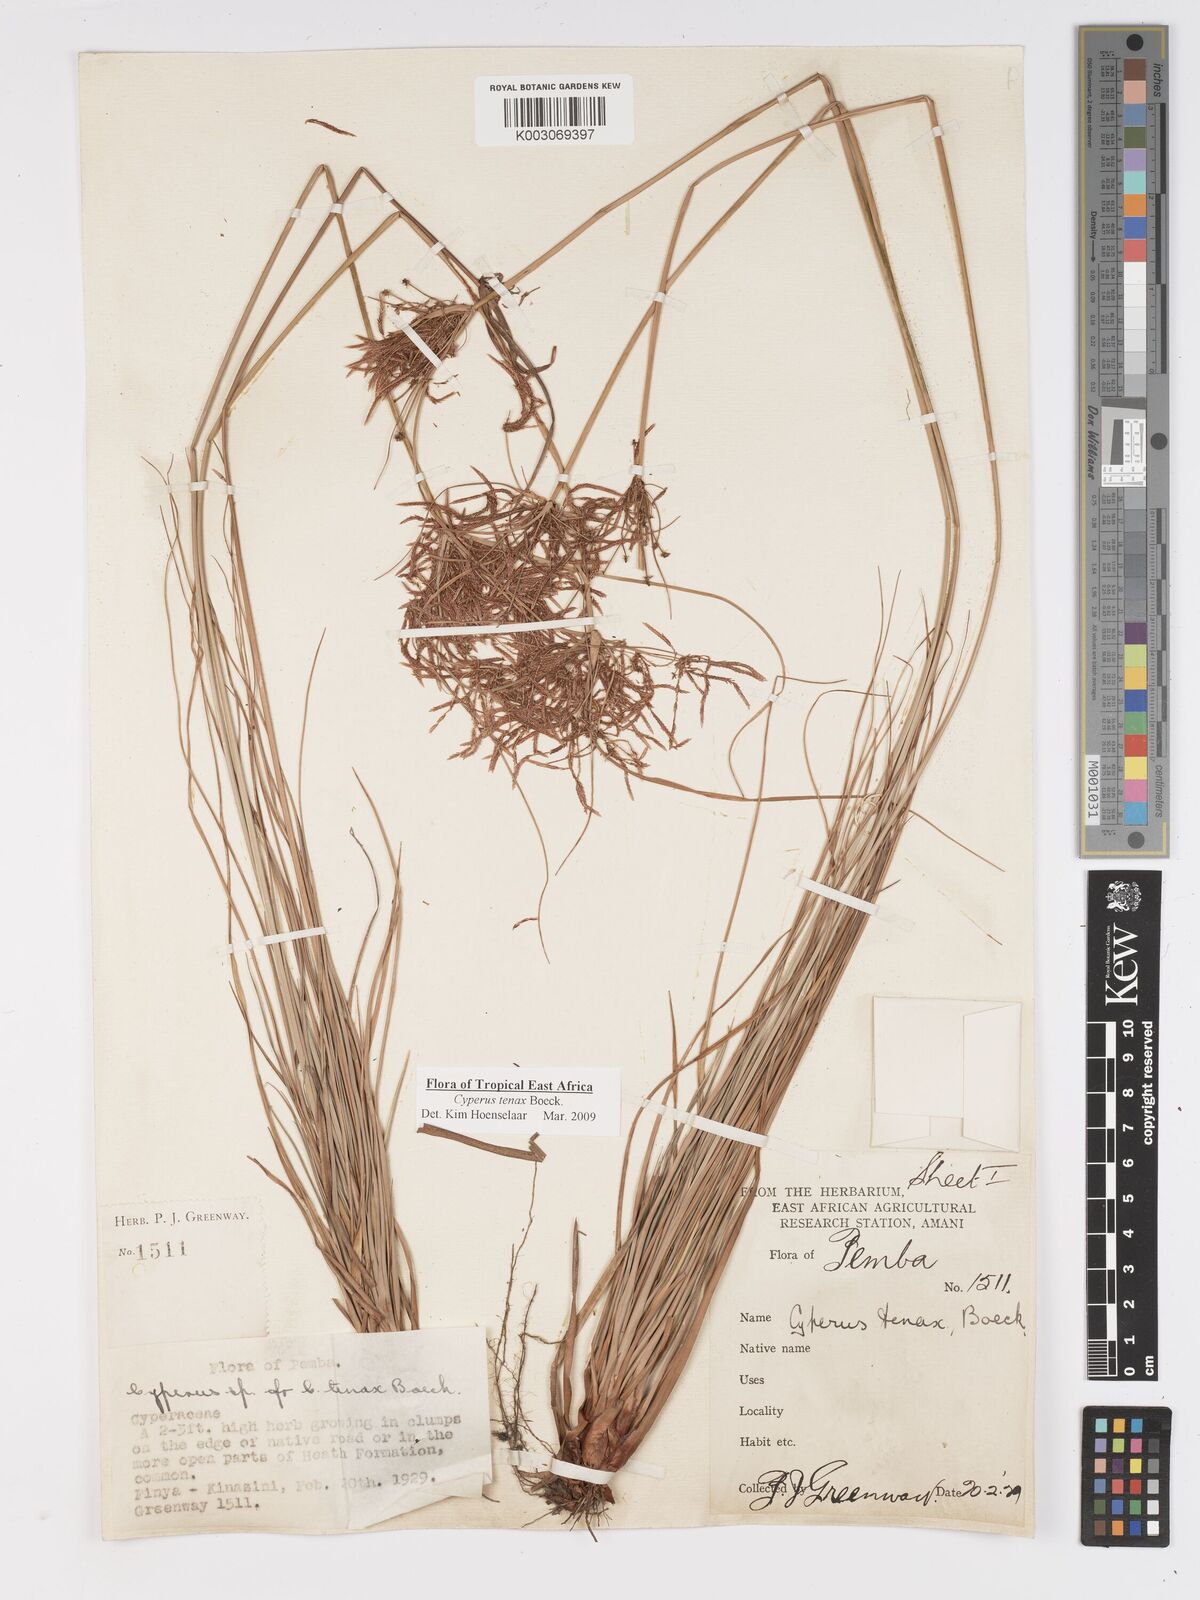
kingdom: Plantae
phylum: Tracheophyta
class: Liliopsida
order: Poales
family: Cyperaceae
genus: Cyperus
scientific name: Cyperus tenax
